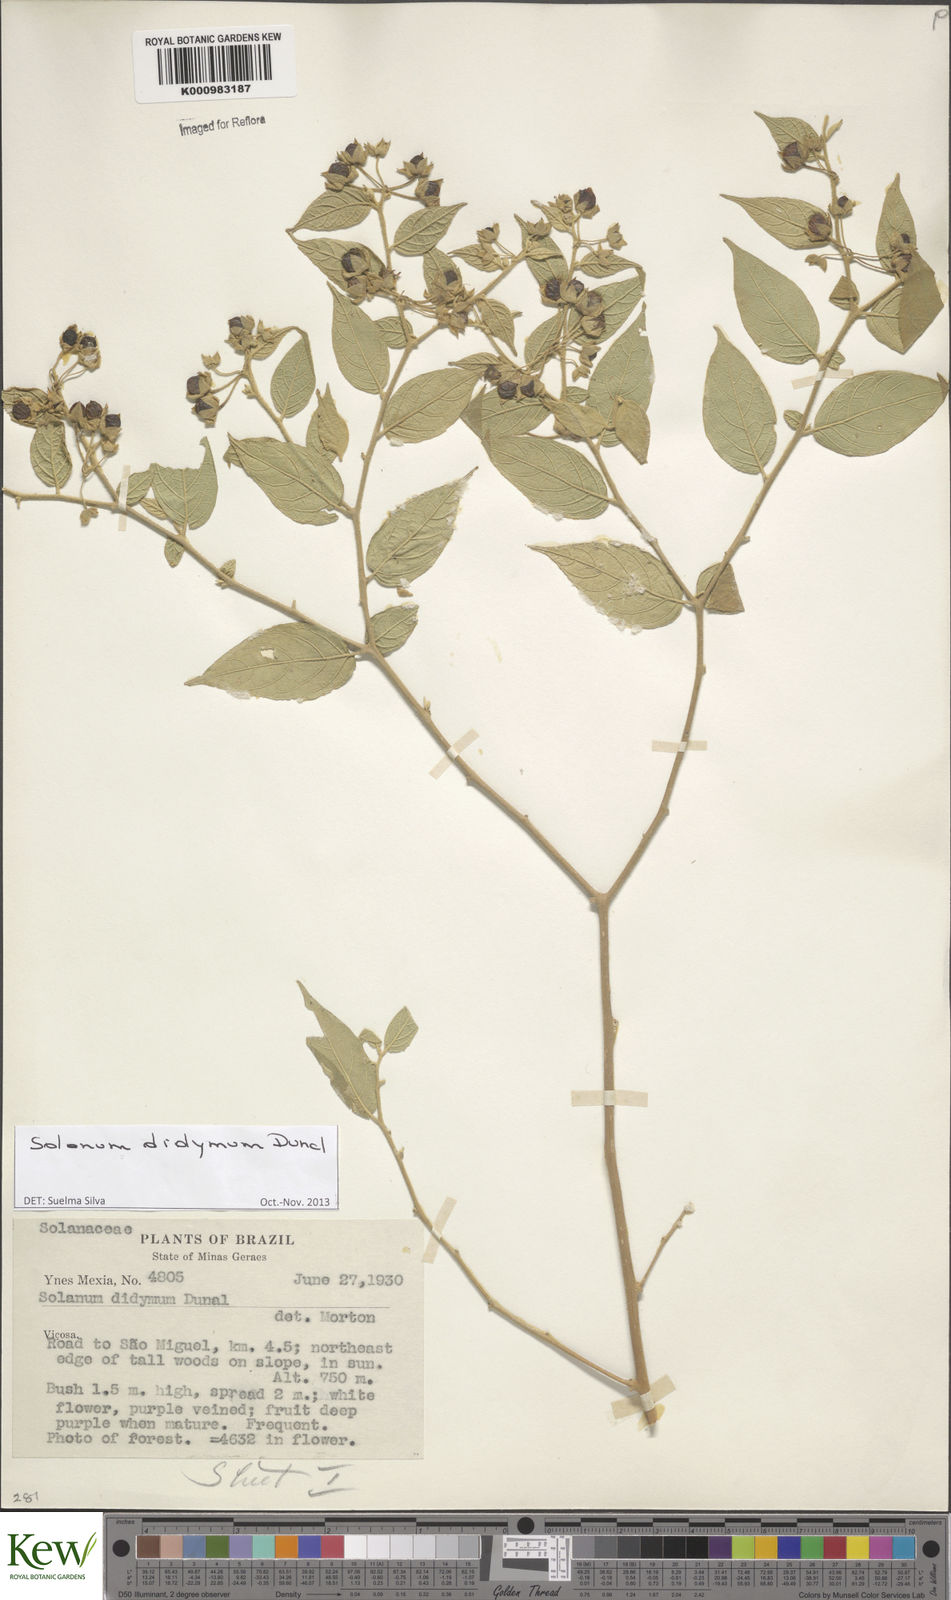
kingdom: Plantae
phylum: Tracheophyta
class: Magnoliopsida
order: Solanales
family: Solanaceae
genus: Solanum
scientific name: Solanum didymum
